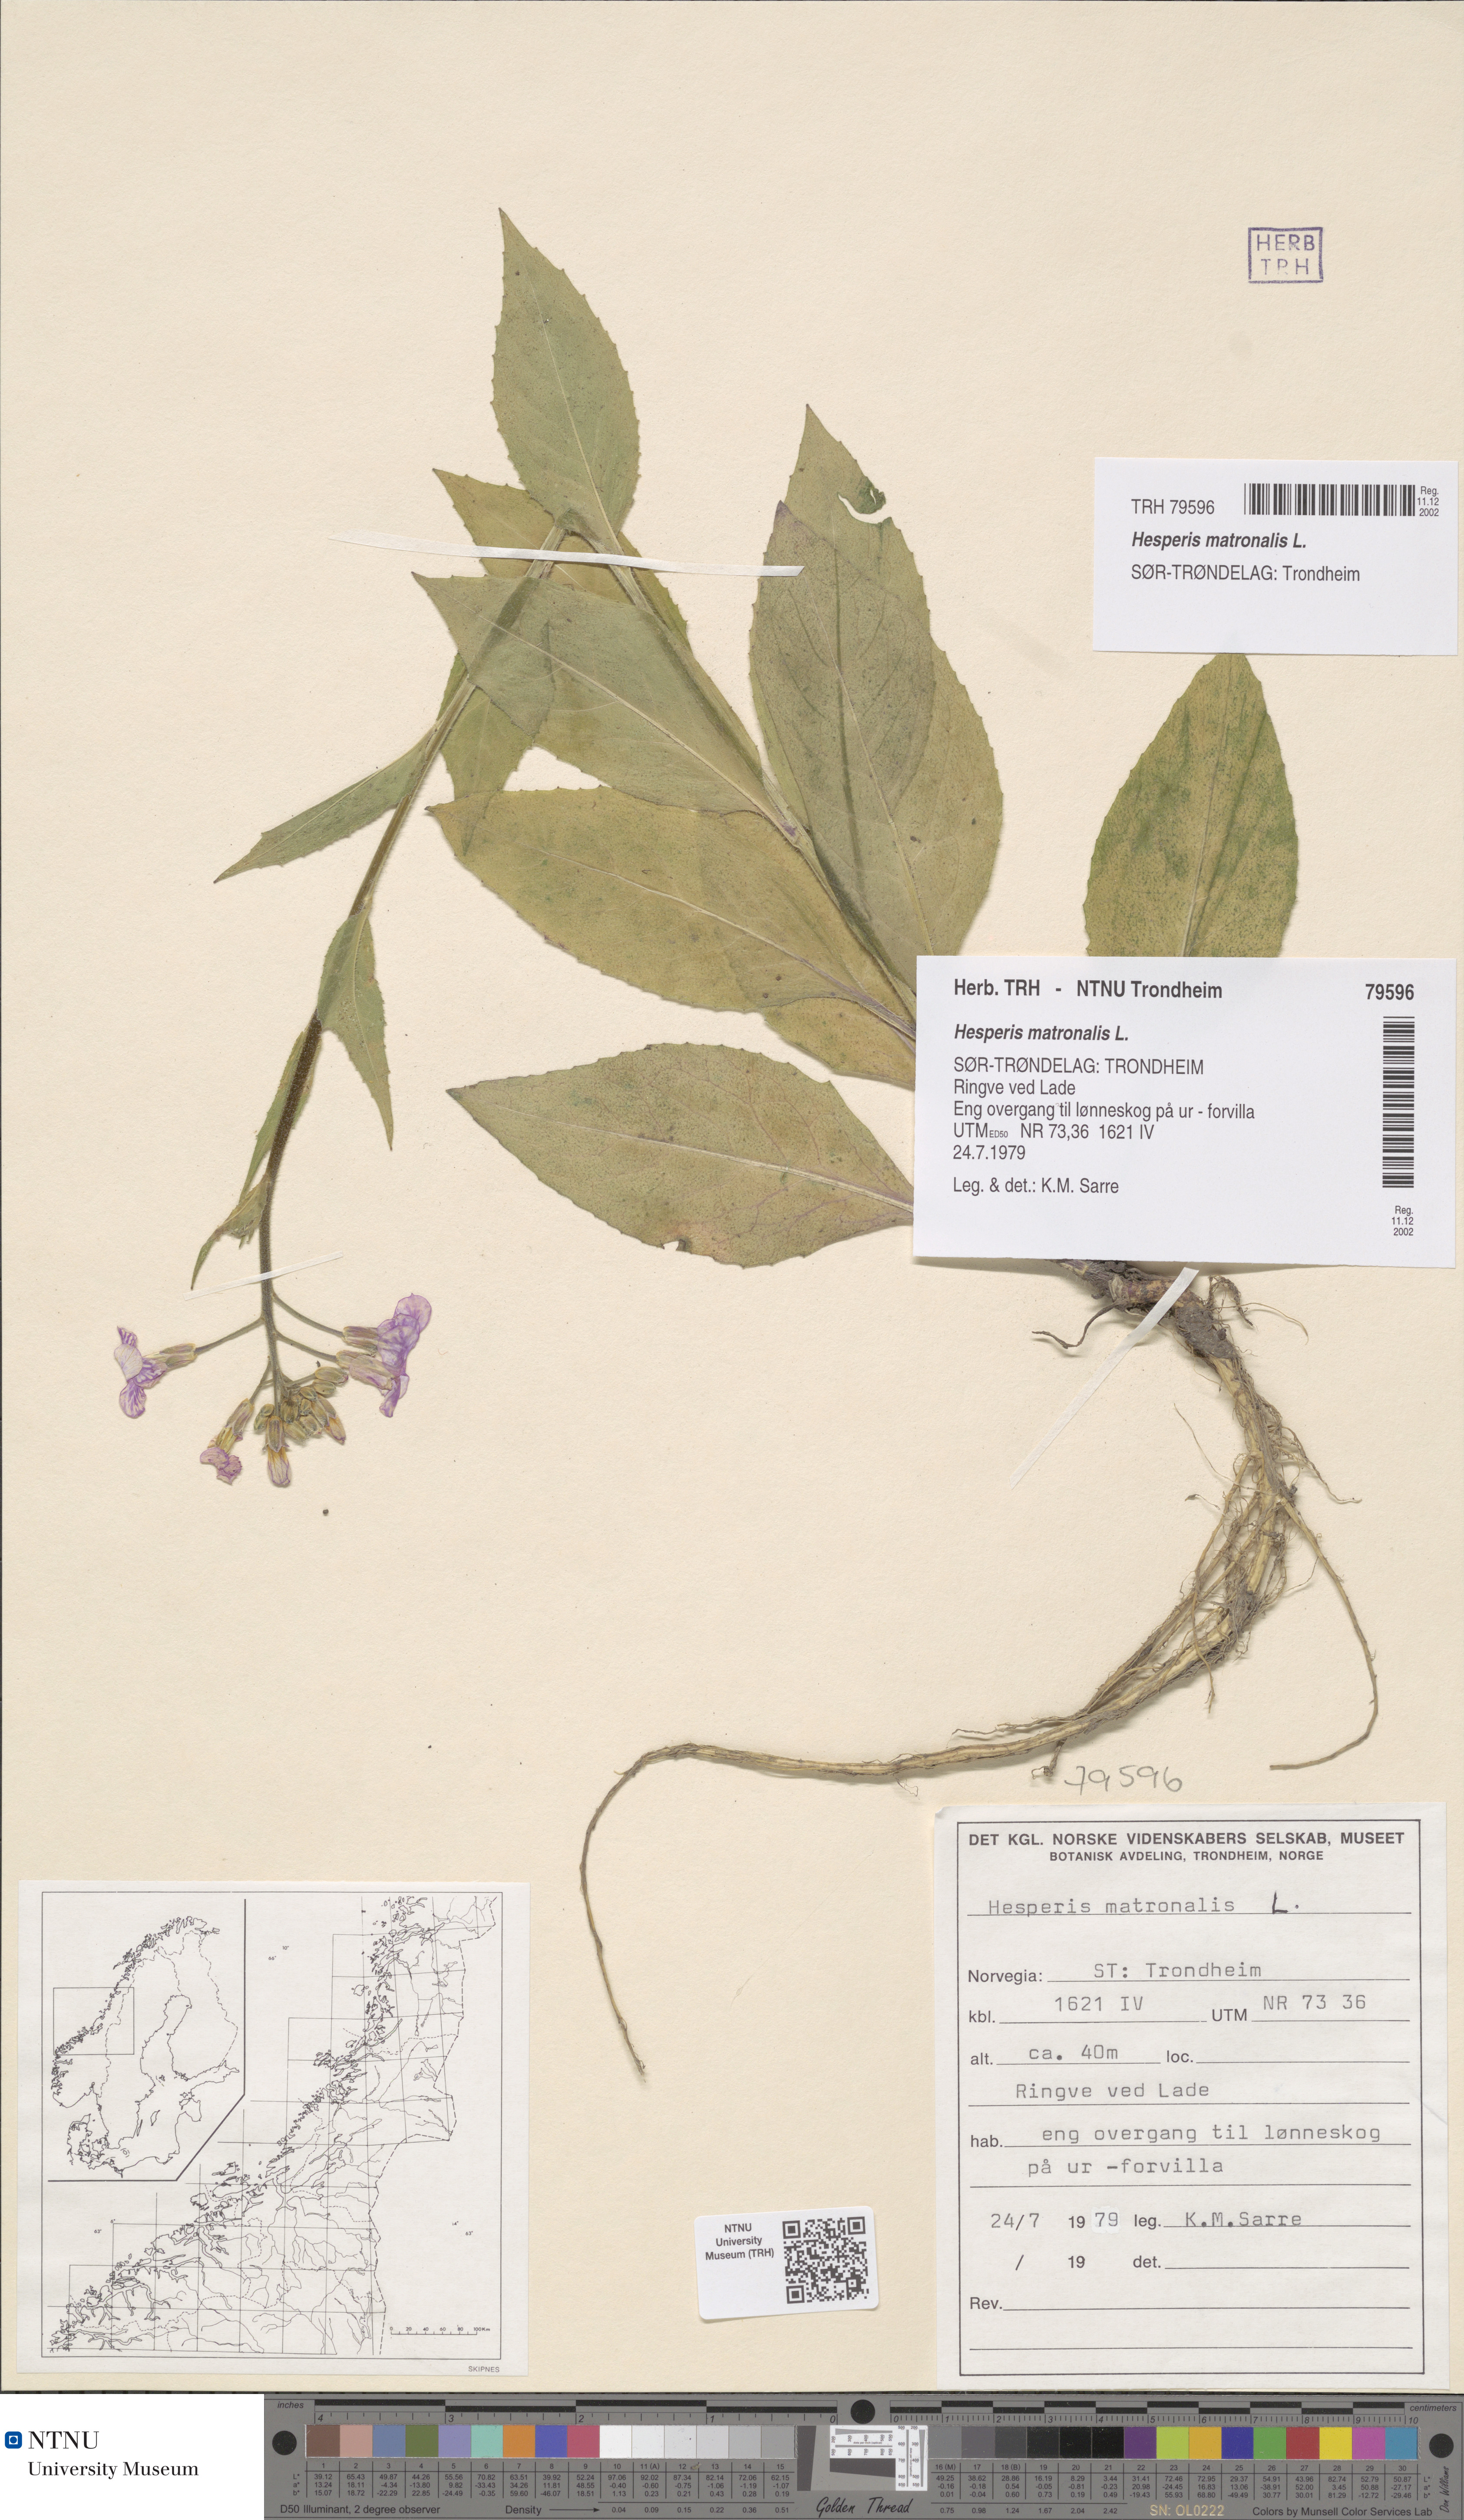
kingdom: Plantae
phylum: Tracheophyta
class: Magnoliopsida
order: Brassicales
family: Brassicaceae
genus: Hesperis
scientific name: Hesperis matronalis
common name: Dame's-violet
